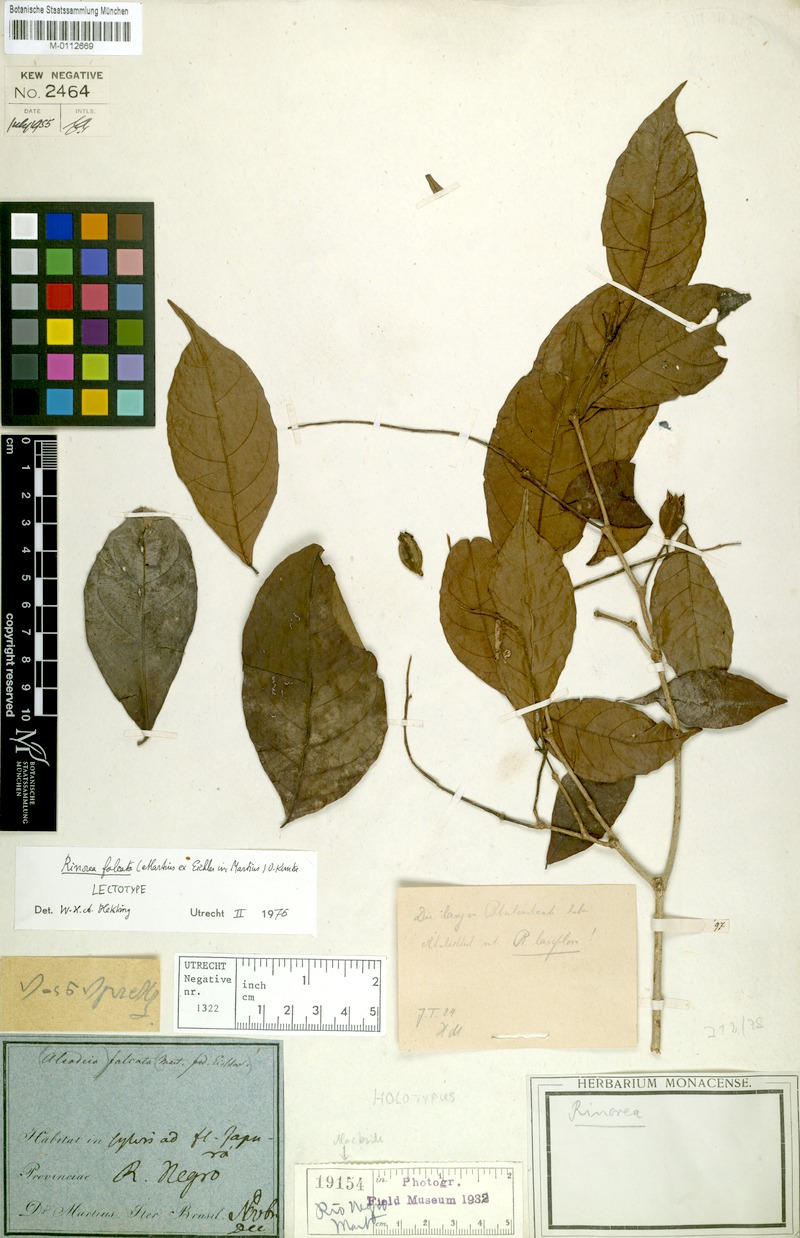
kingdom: Plantae
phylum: Tracheophyta
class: Magnoliopsida
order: Malpighiales
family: Violaceae
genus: Rinorea
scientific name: Rinorea falcata
